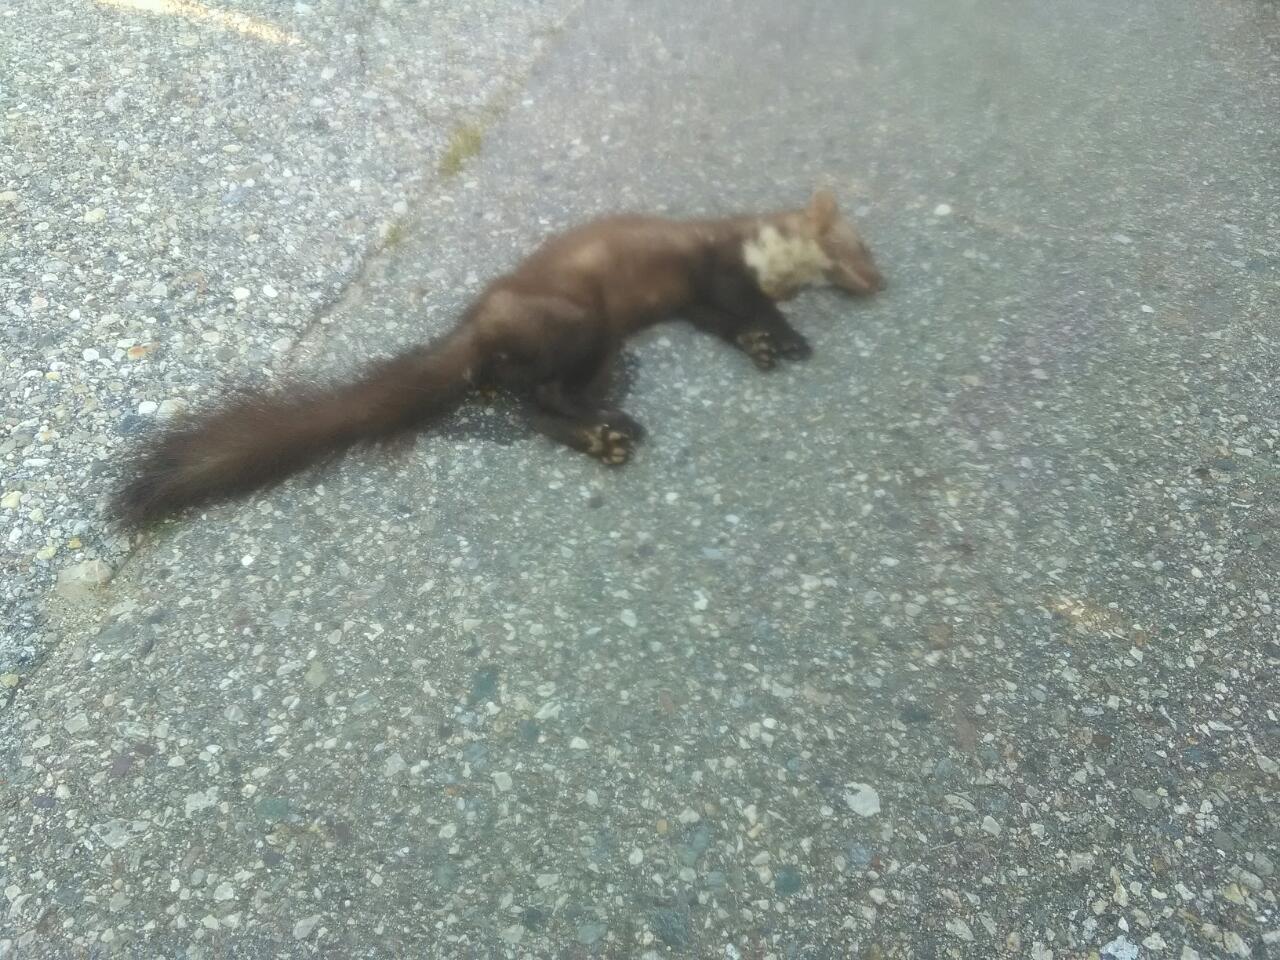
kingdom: Animalia
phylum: Chordata
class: Mammalia
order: Carnivora
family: Mustelidae
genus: Martes
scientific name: Martes foina
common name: Beech marten
